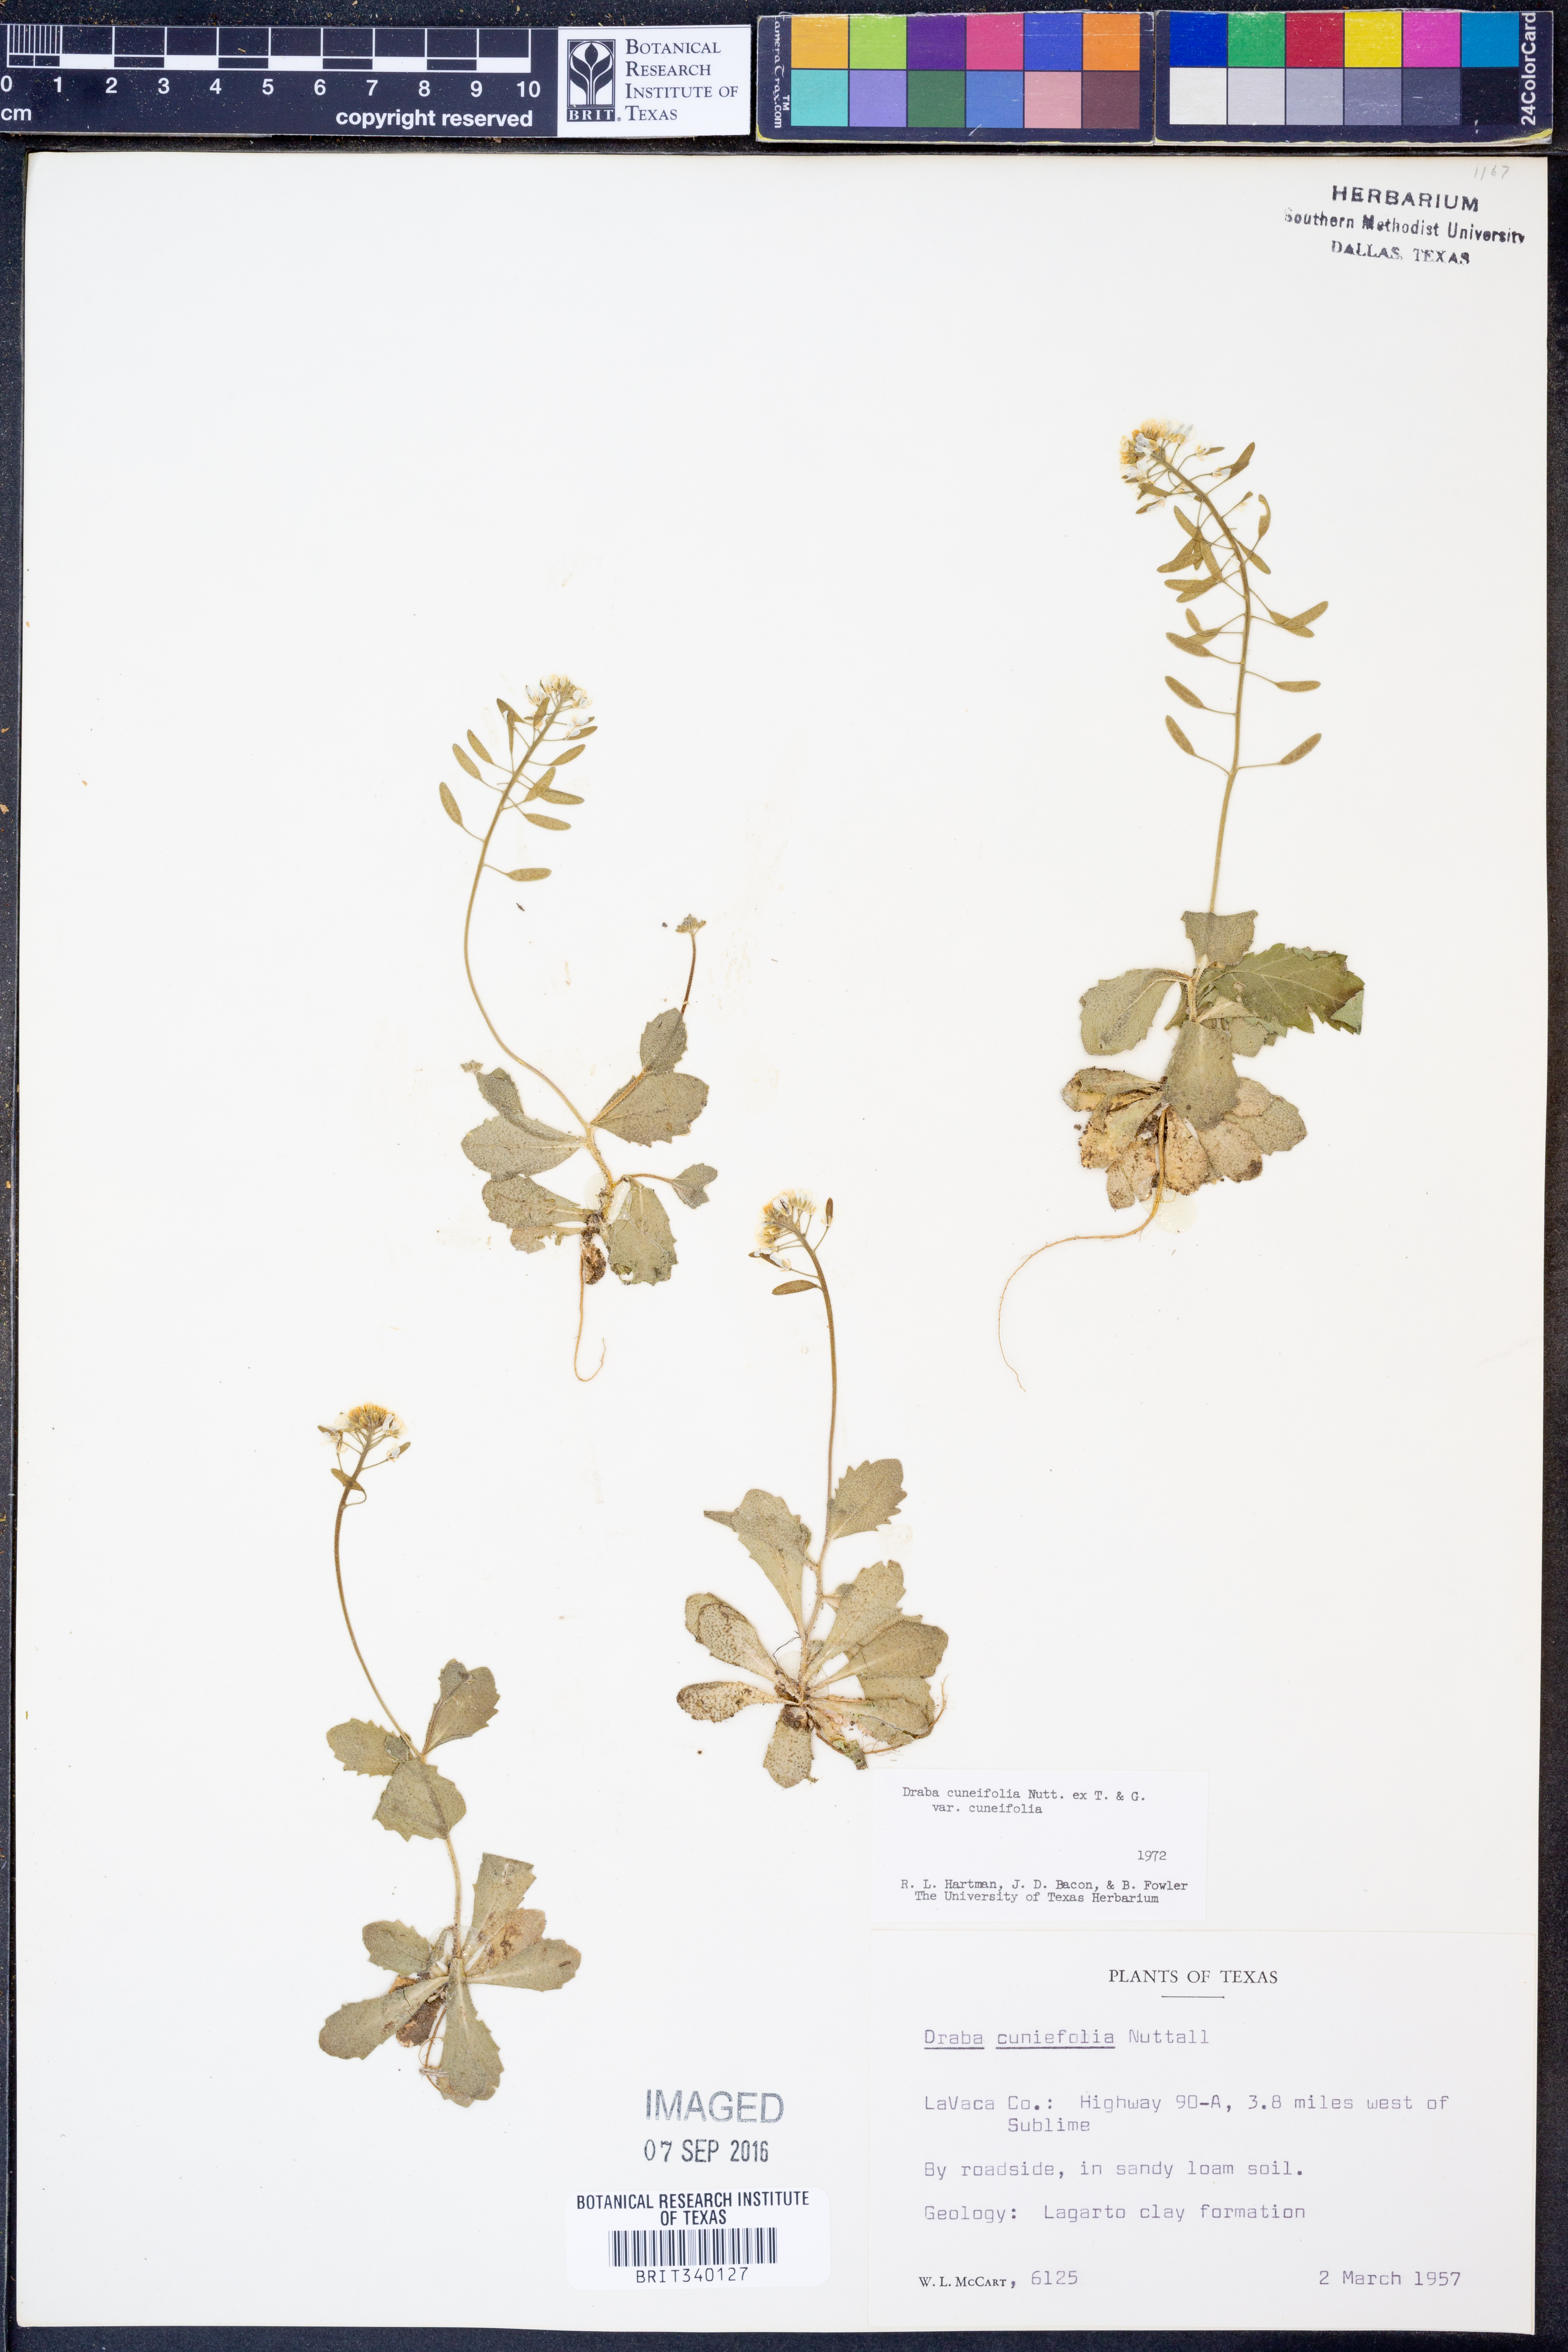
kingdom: Plantae
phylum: Tracheophyta
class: Magnoliopsida
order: Brassicales
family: Brassicaceae
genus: Tomostima
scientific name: Tomostima cuneifolia
